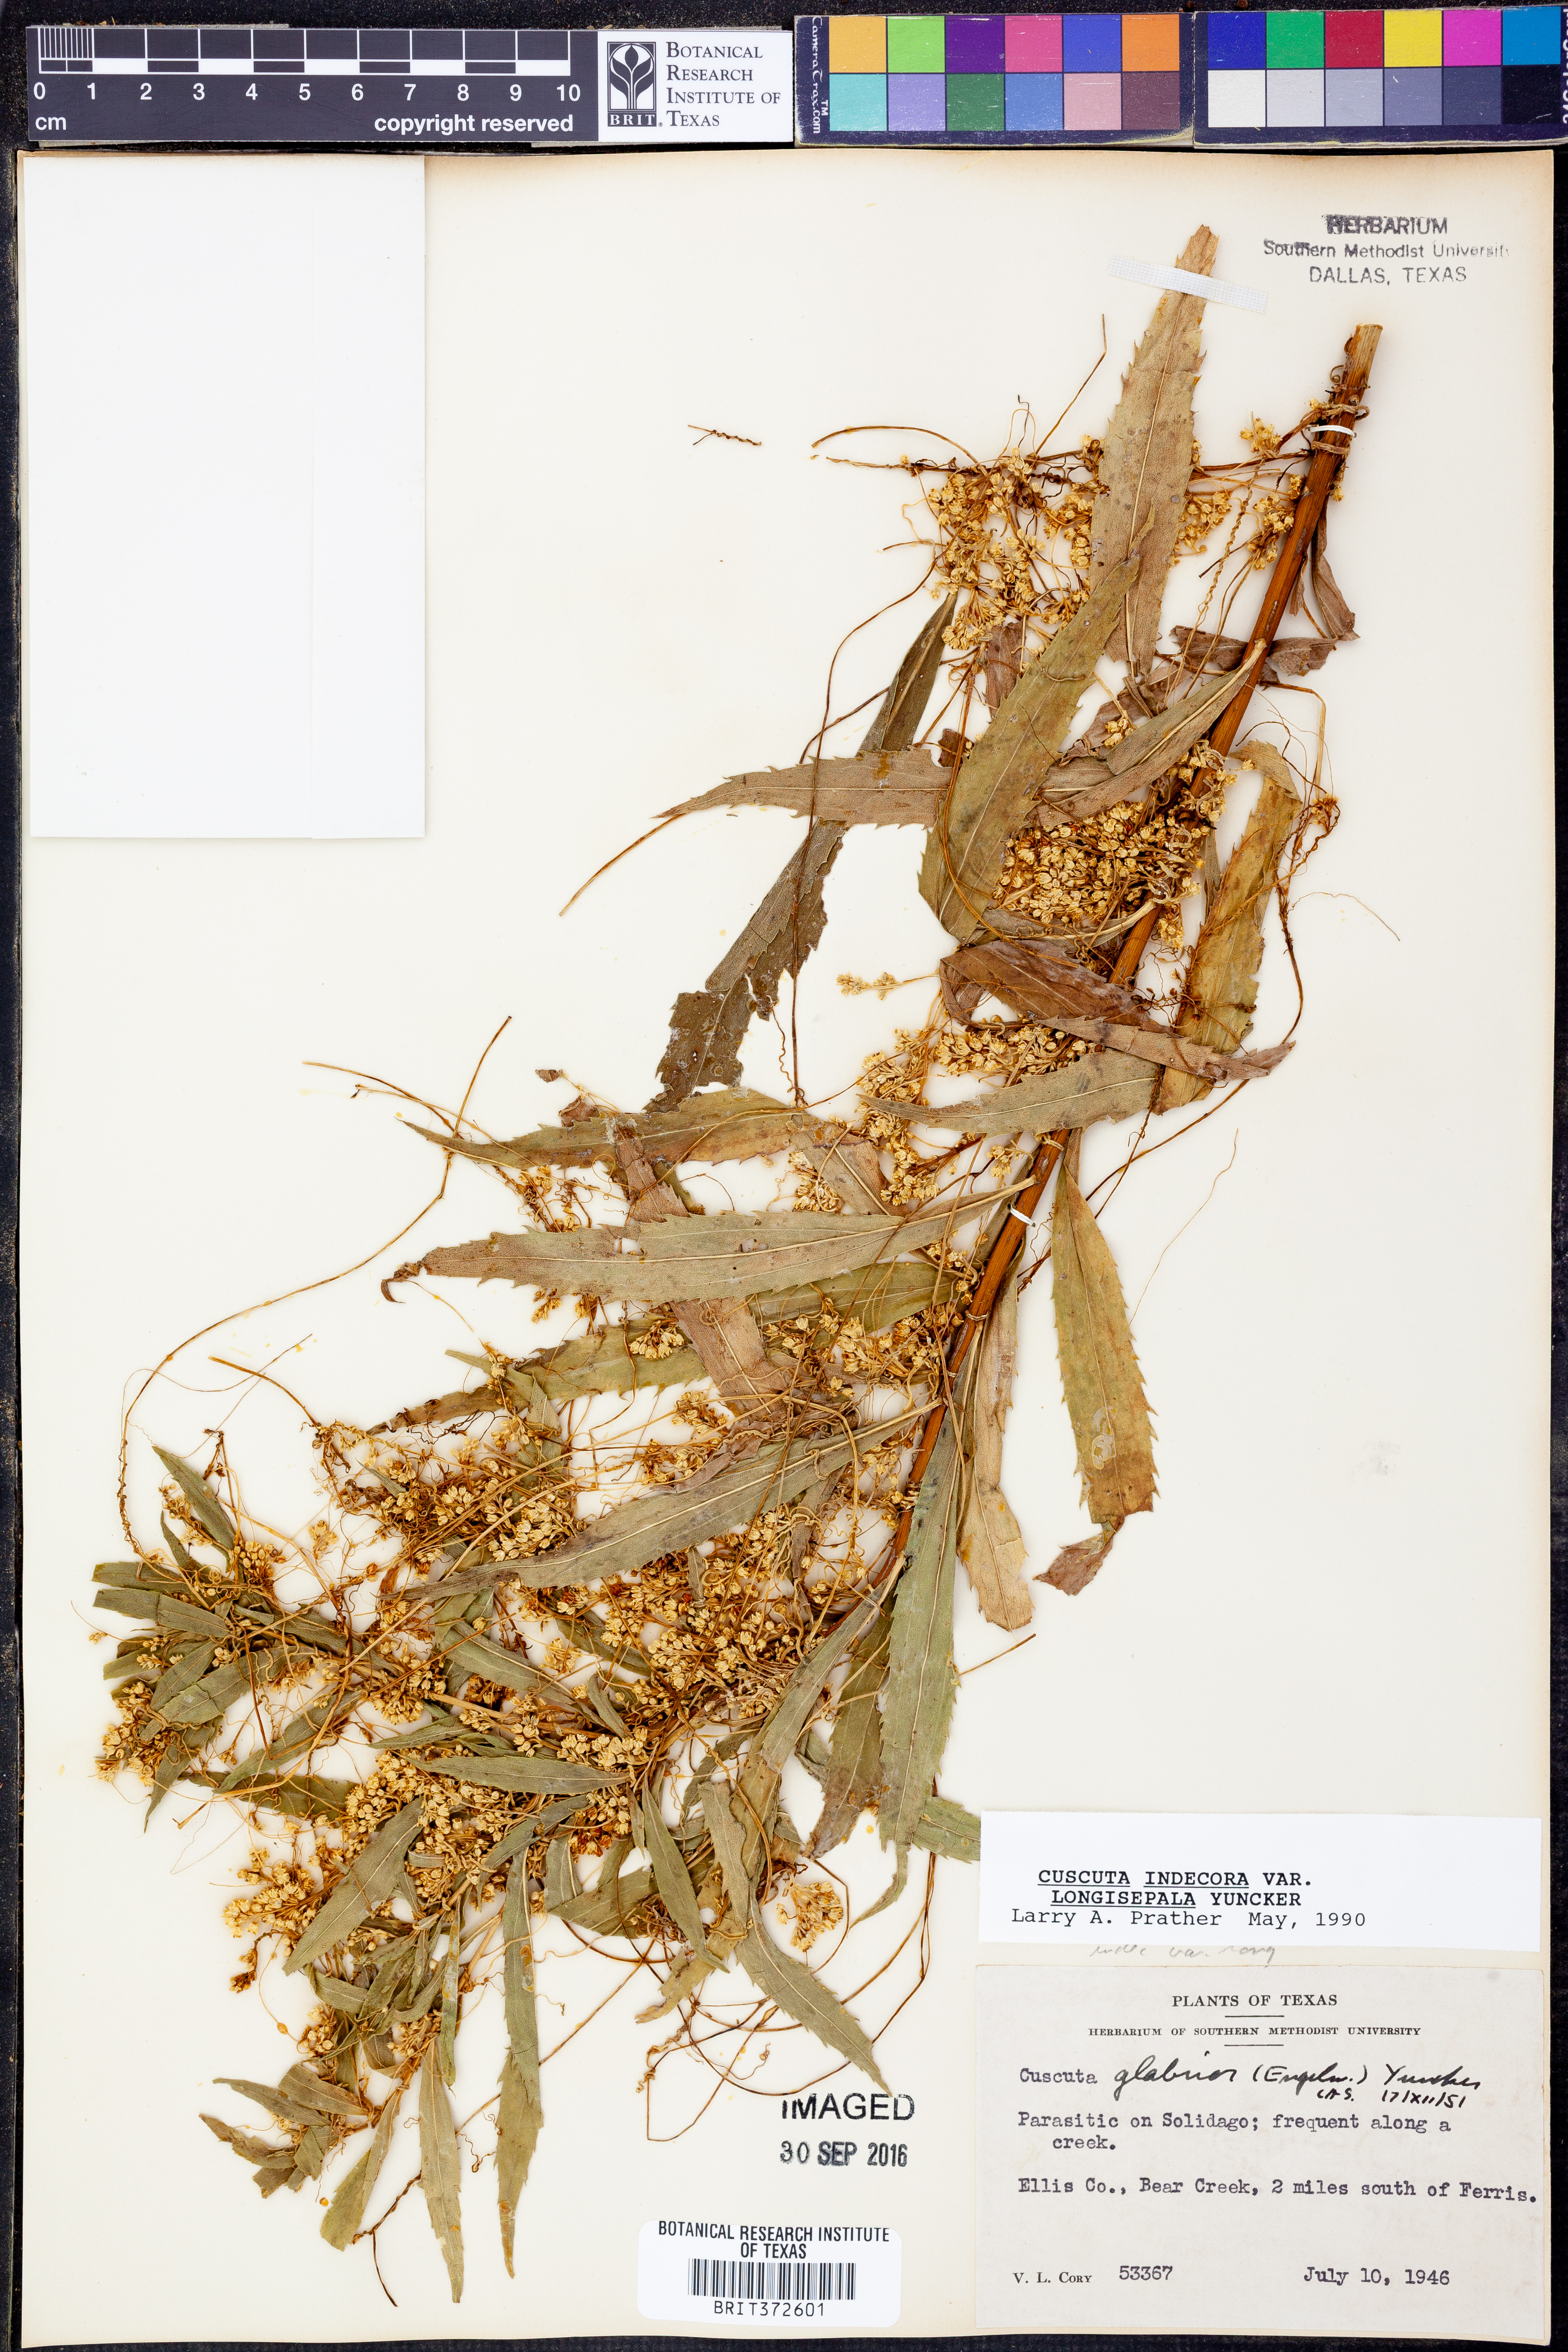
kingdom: Plantae
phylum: Tracheophyta
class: Magnoliopsida
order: Solanales
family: Convolvulaceae
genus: Cuscuta
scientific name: Cuscuta indecora
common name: Large-seed dodder
